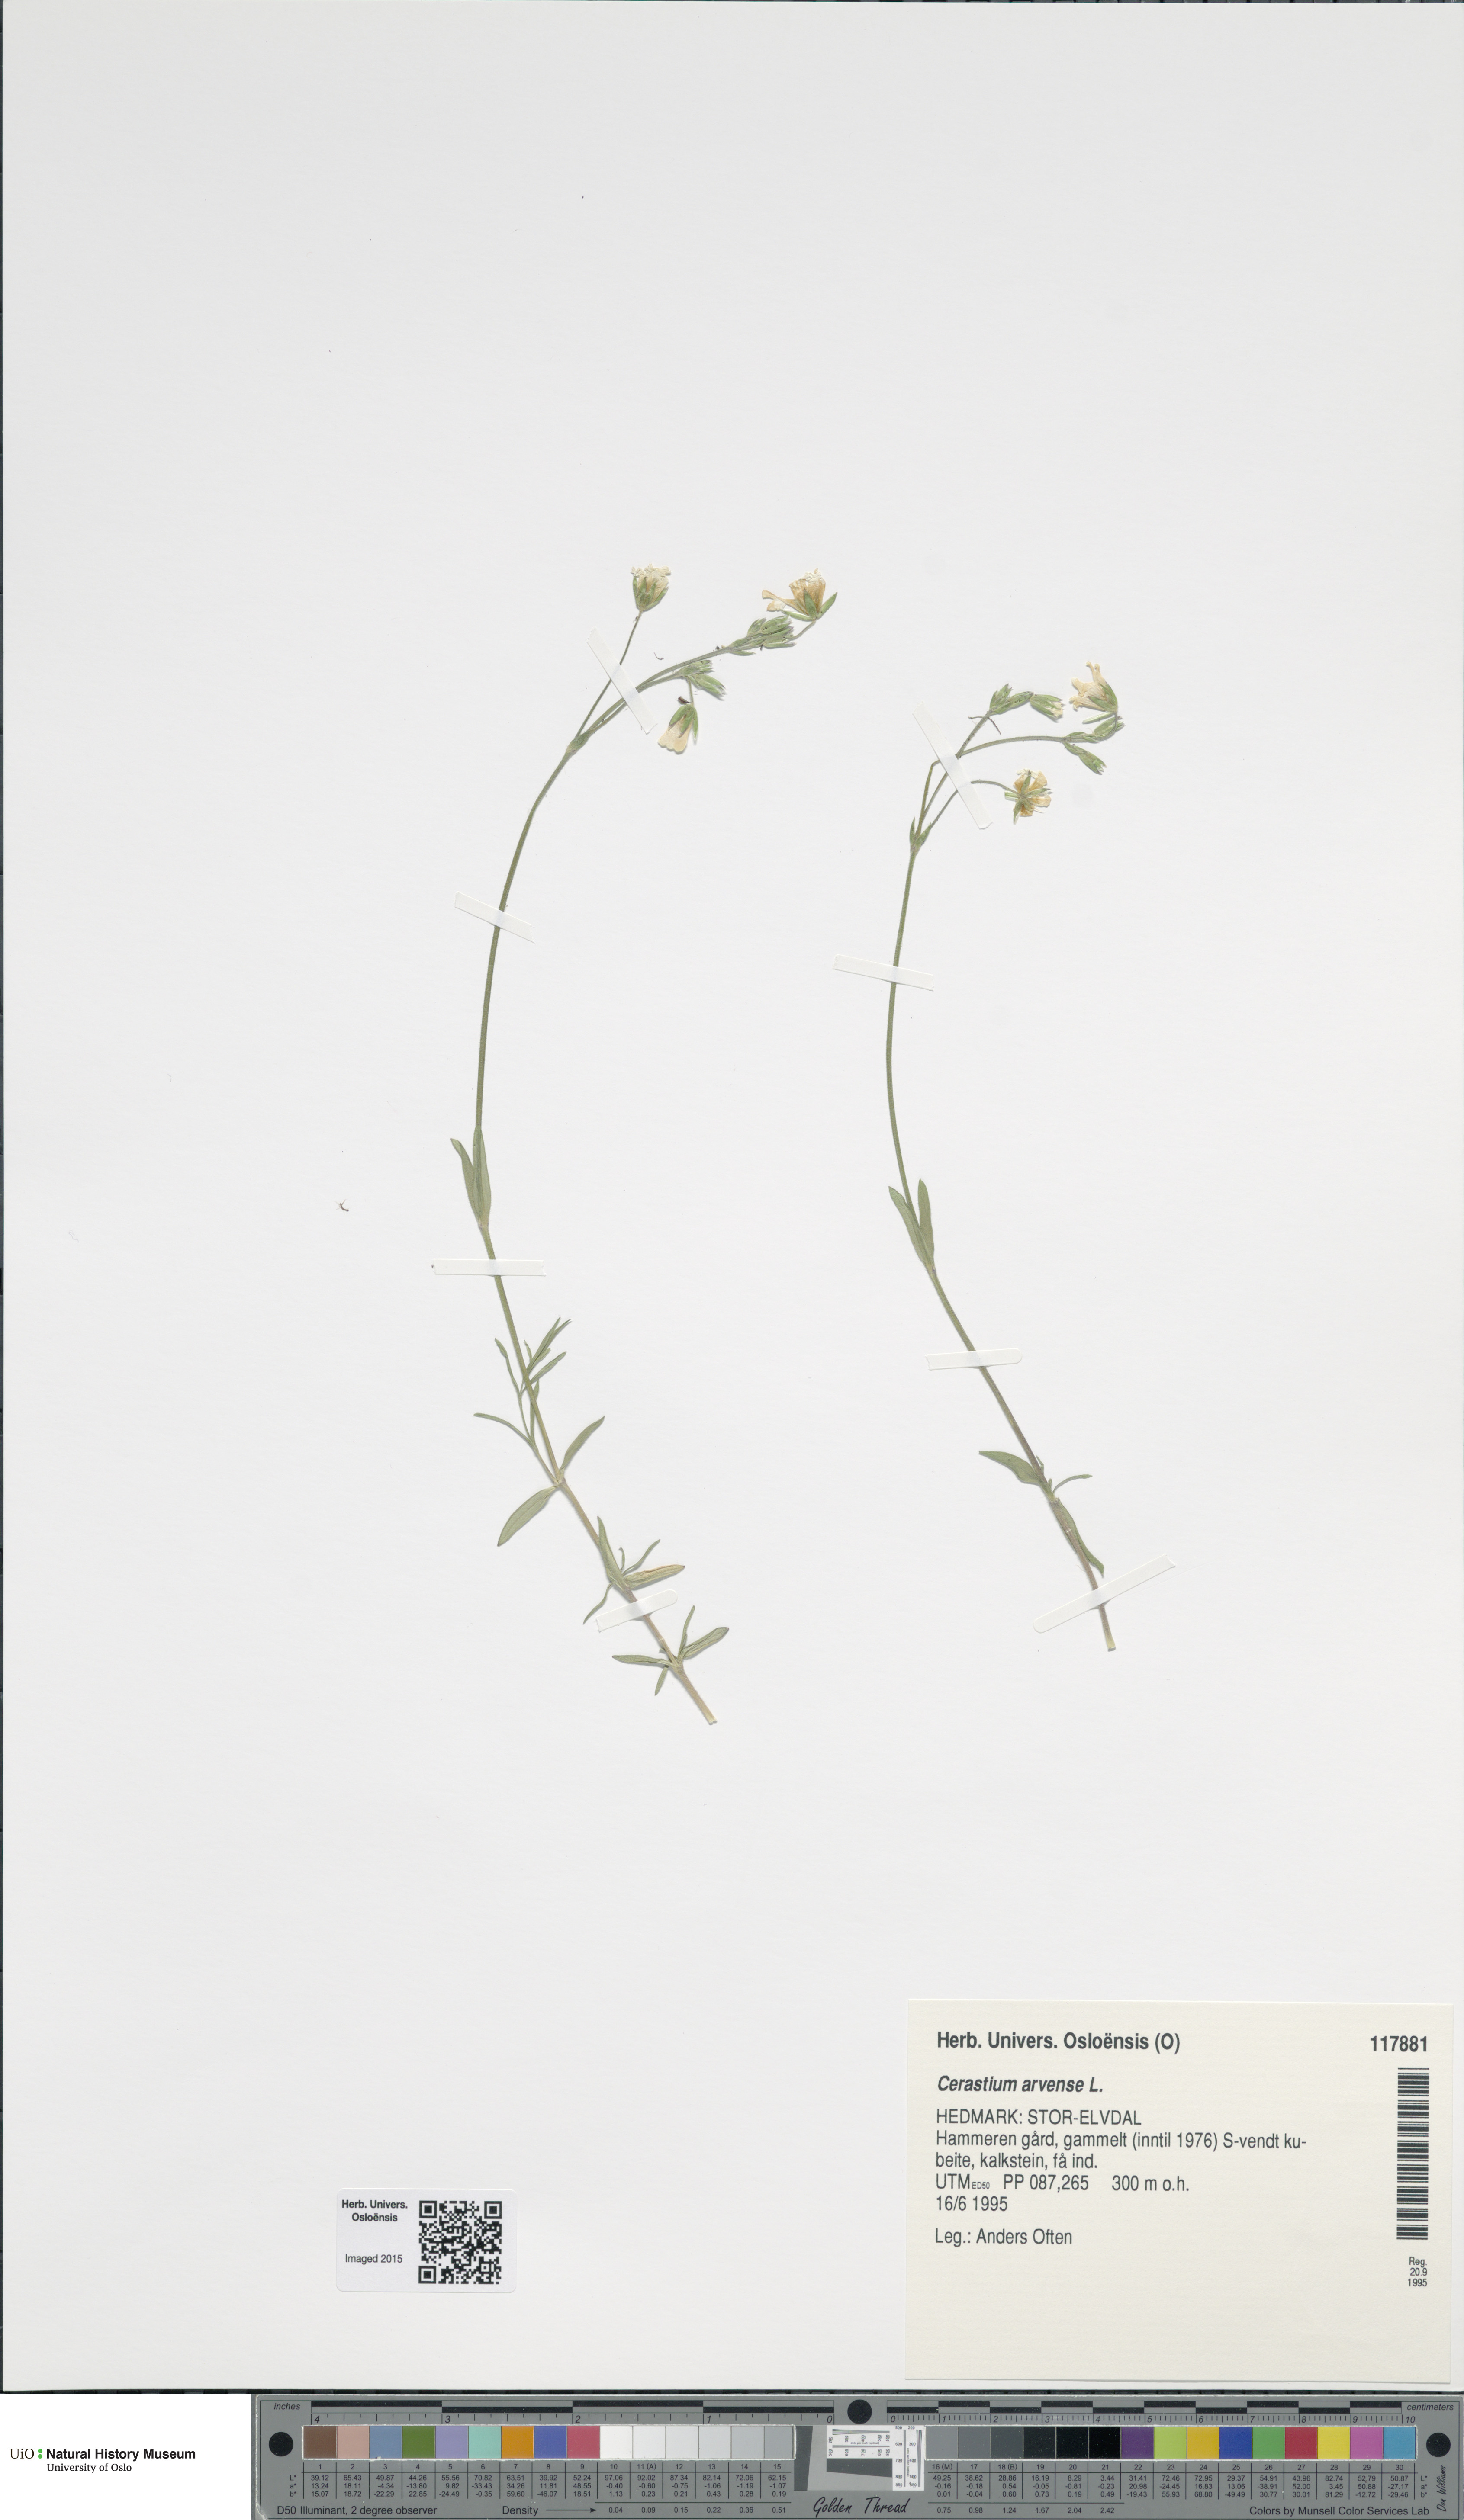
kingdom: Plantae
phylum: Tracheophyta
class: Magnoliopsida
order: Caryophyllales
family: Caryophyllaceae
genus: Cerastium
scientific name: Cerastium arvense
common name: Field mouse-ear
